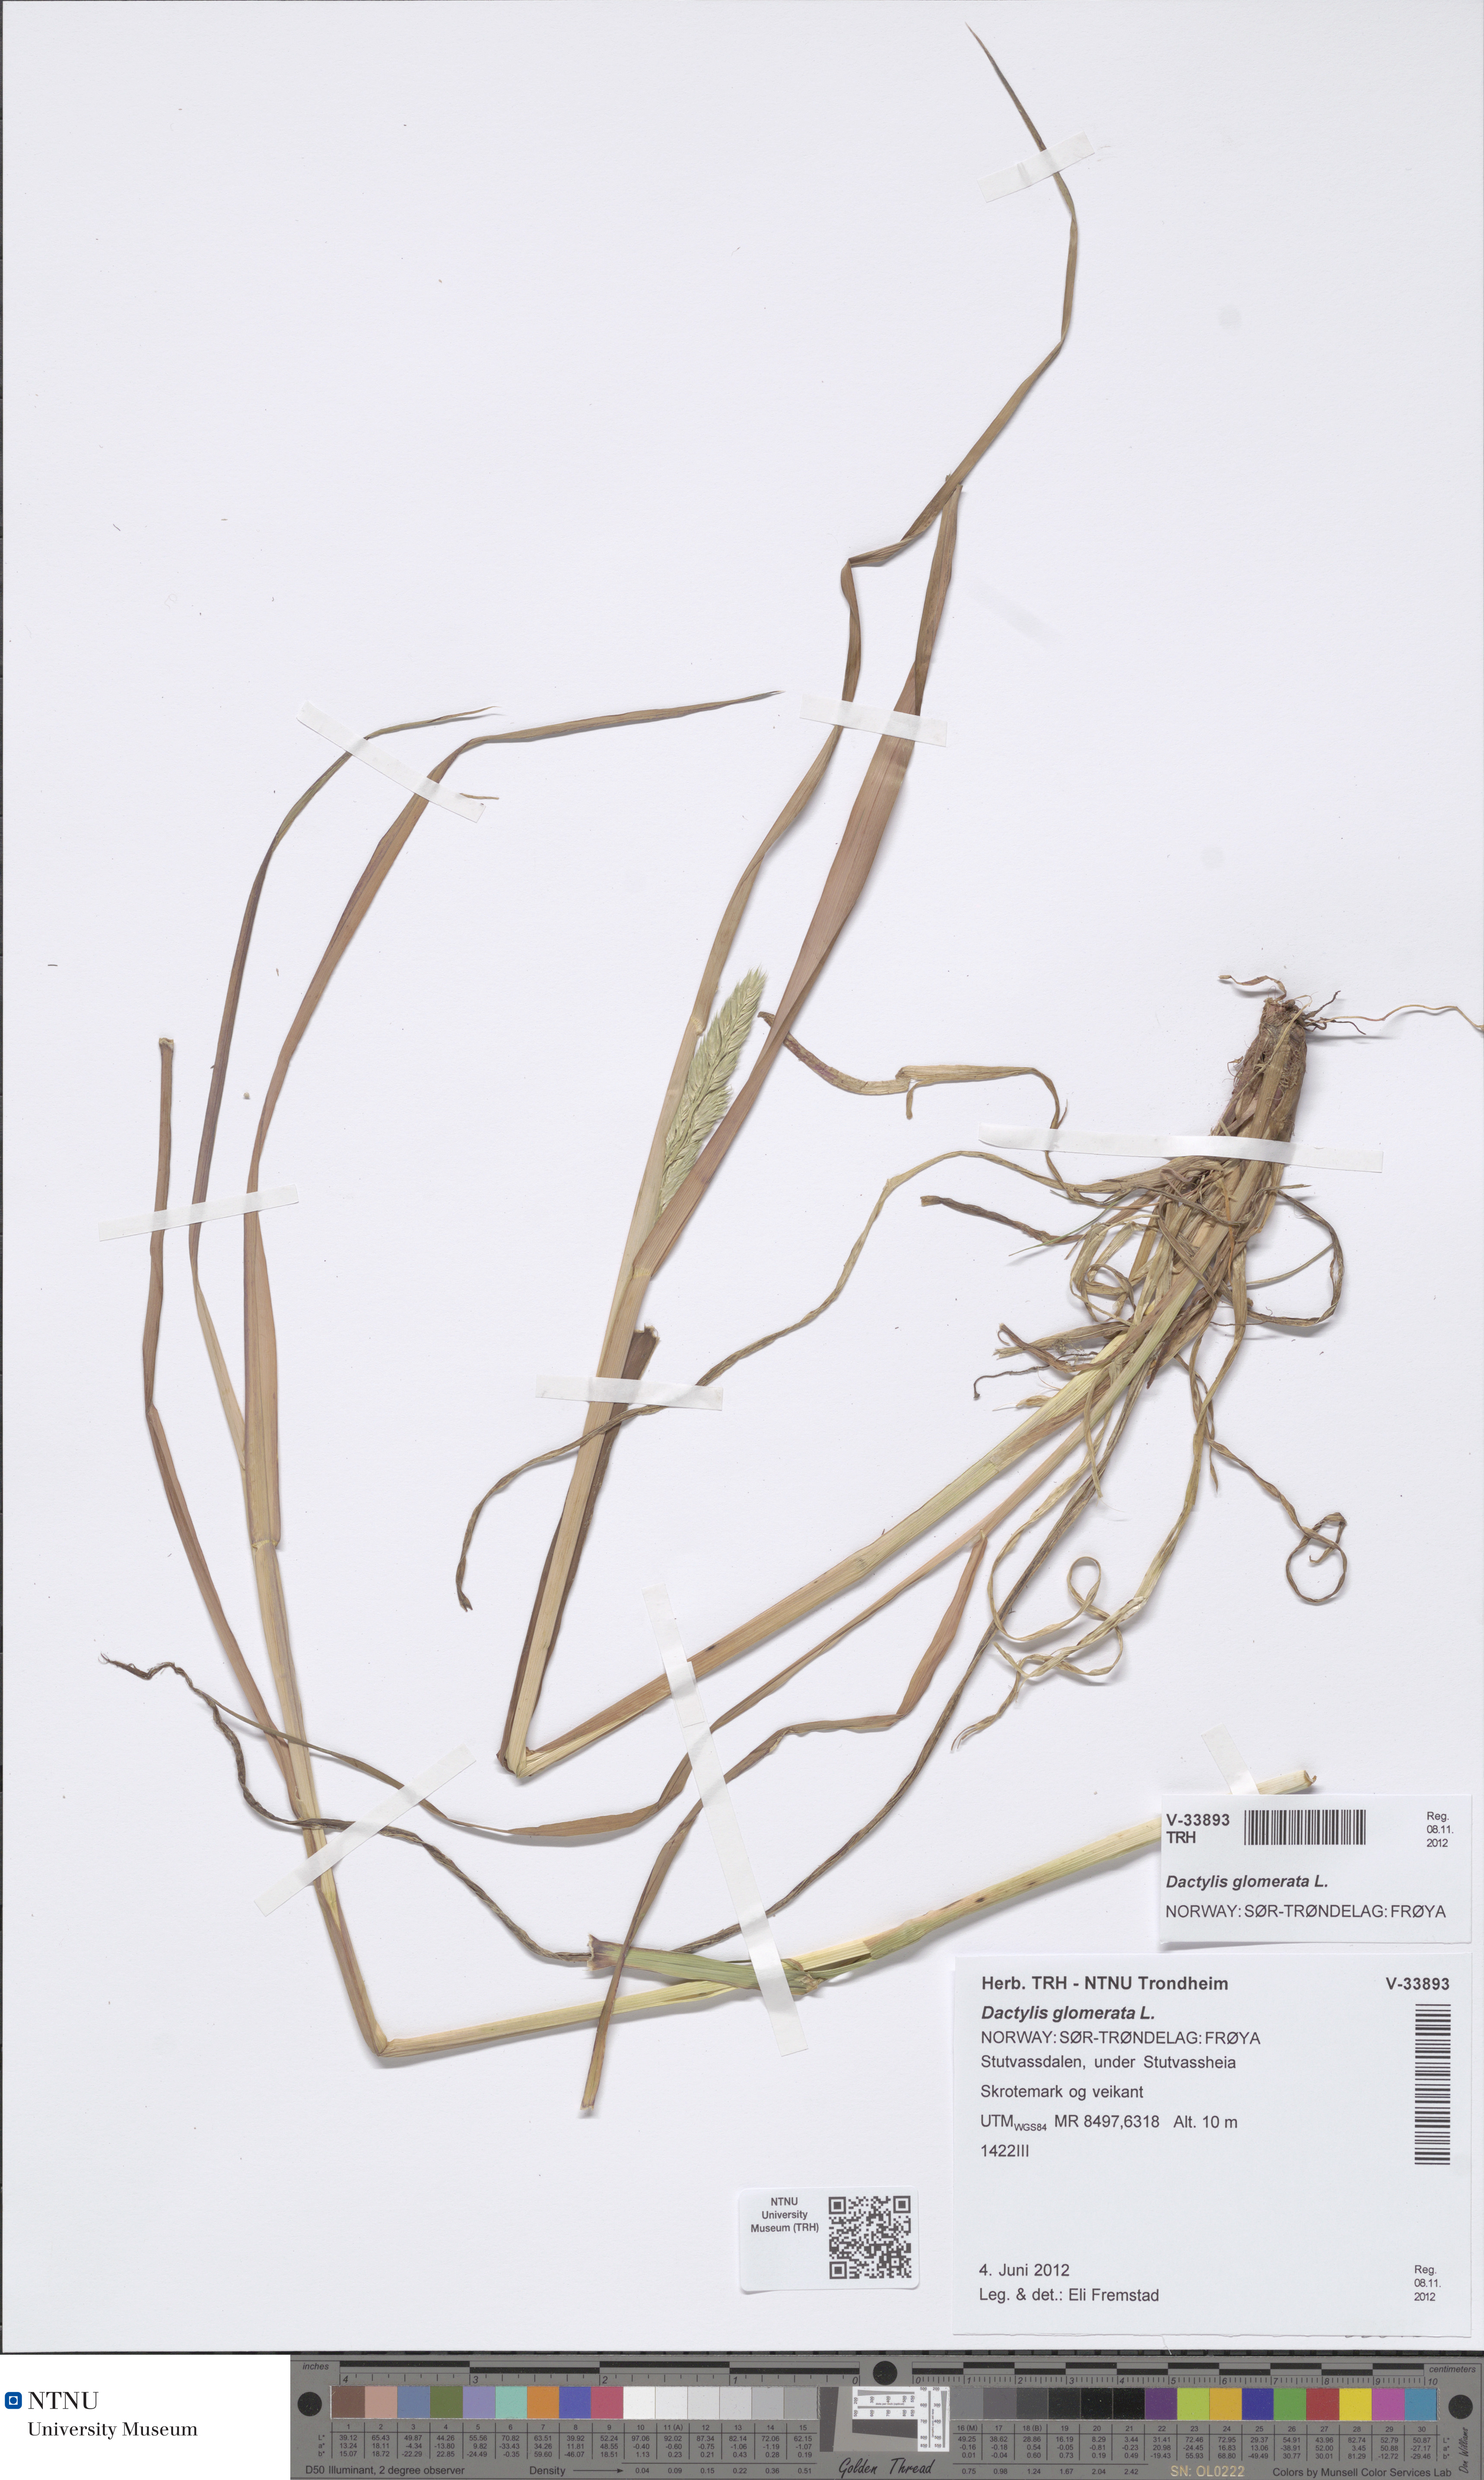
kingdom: Plantae
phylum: Tracheophyta
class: Liliopsida
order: Poales
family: Poaceae
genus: Dactylis
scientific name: Dactylis glomerata
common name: Orchardgrass
